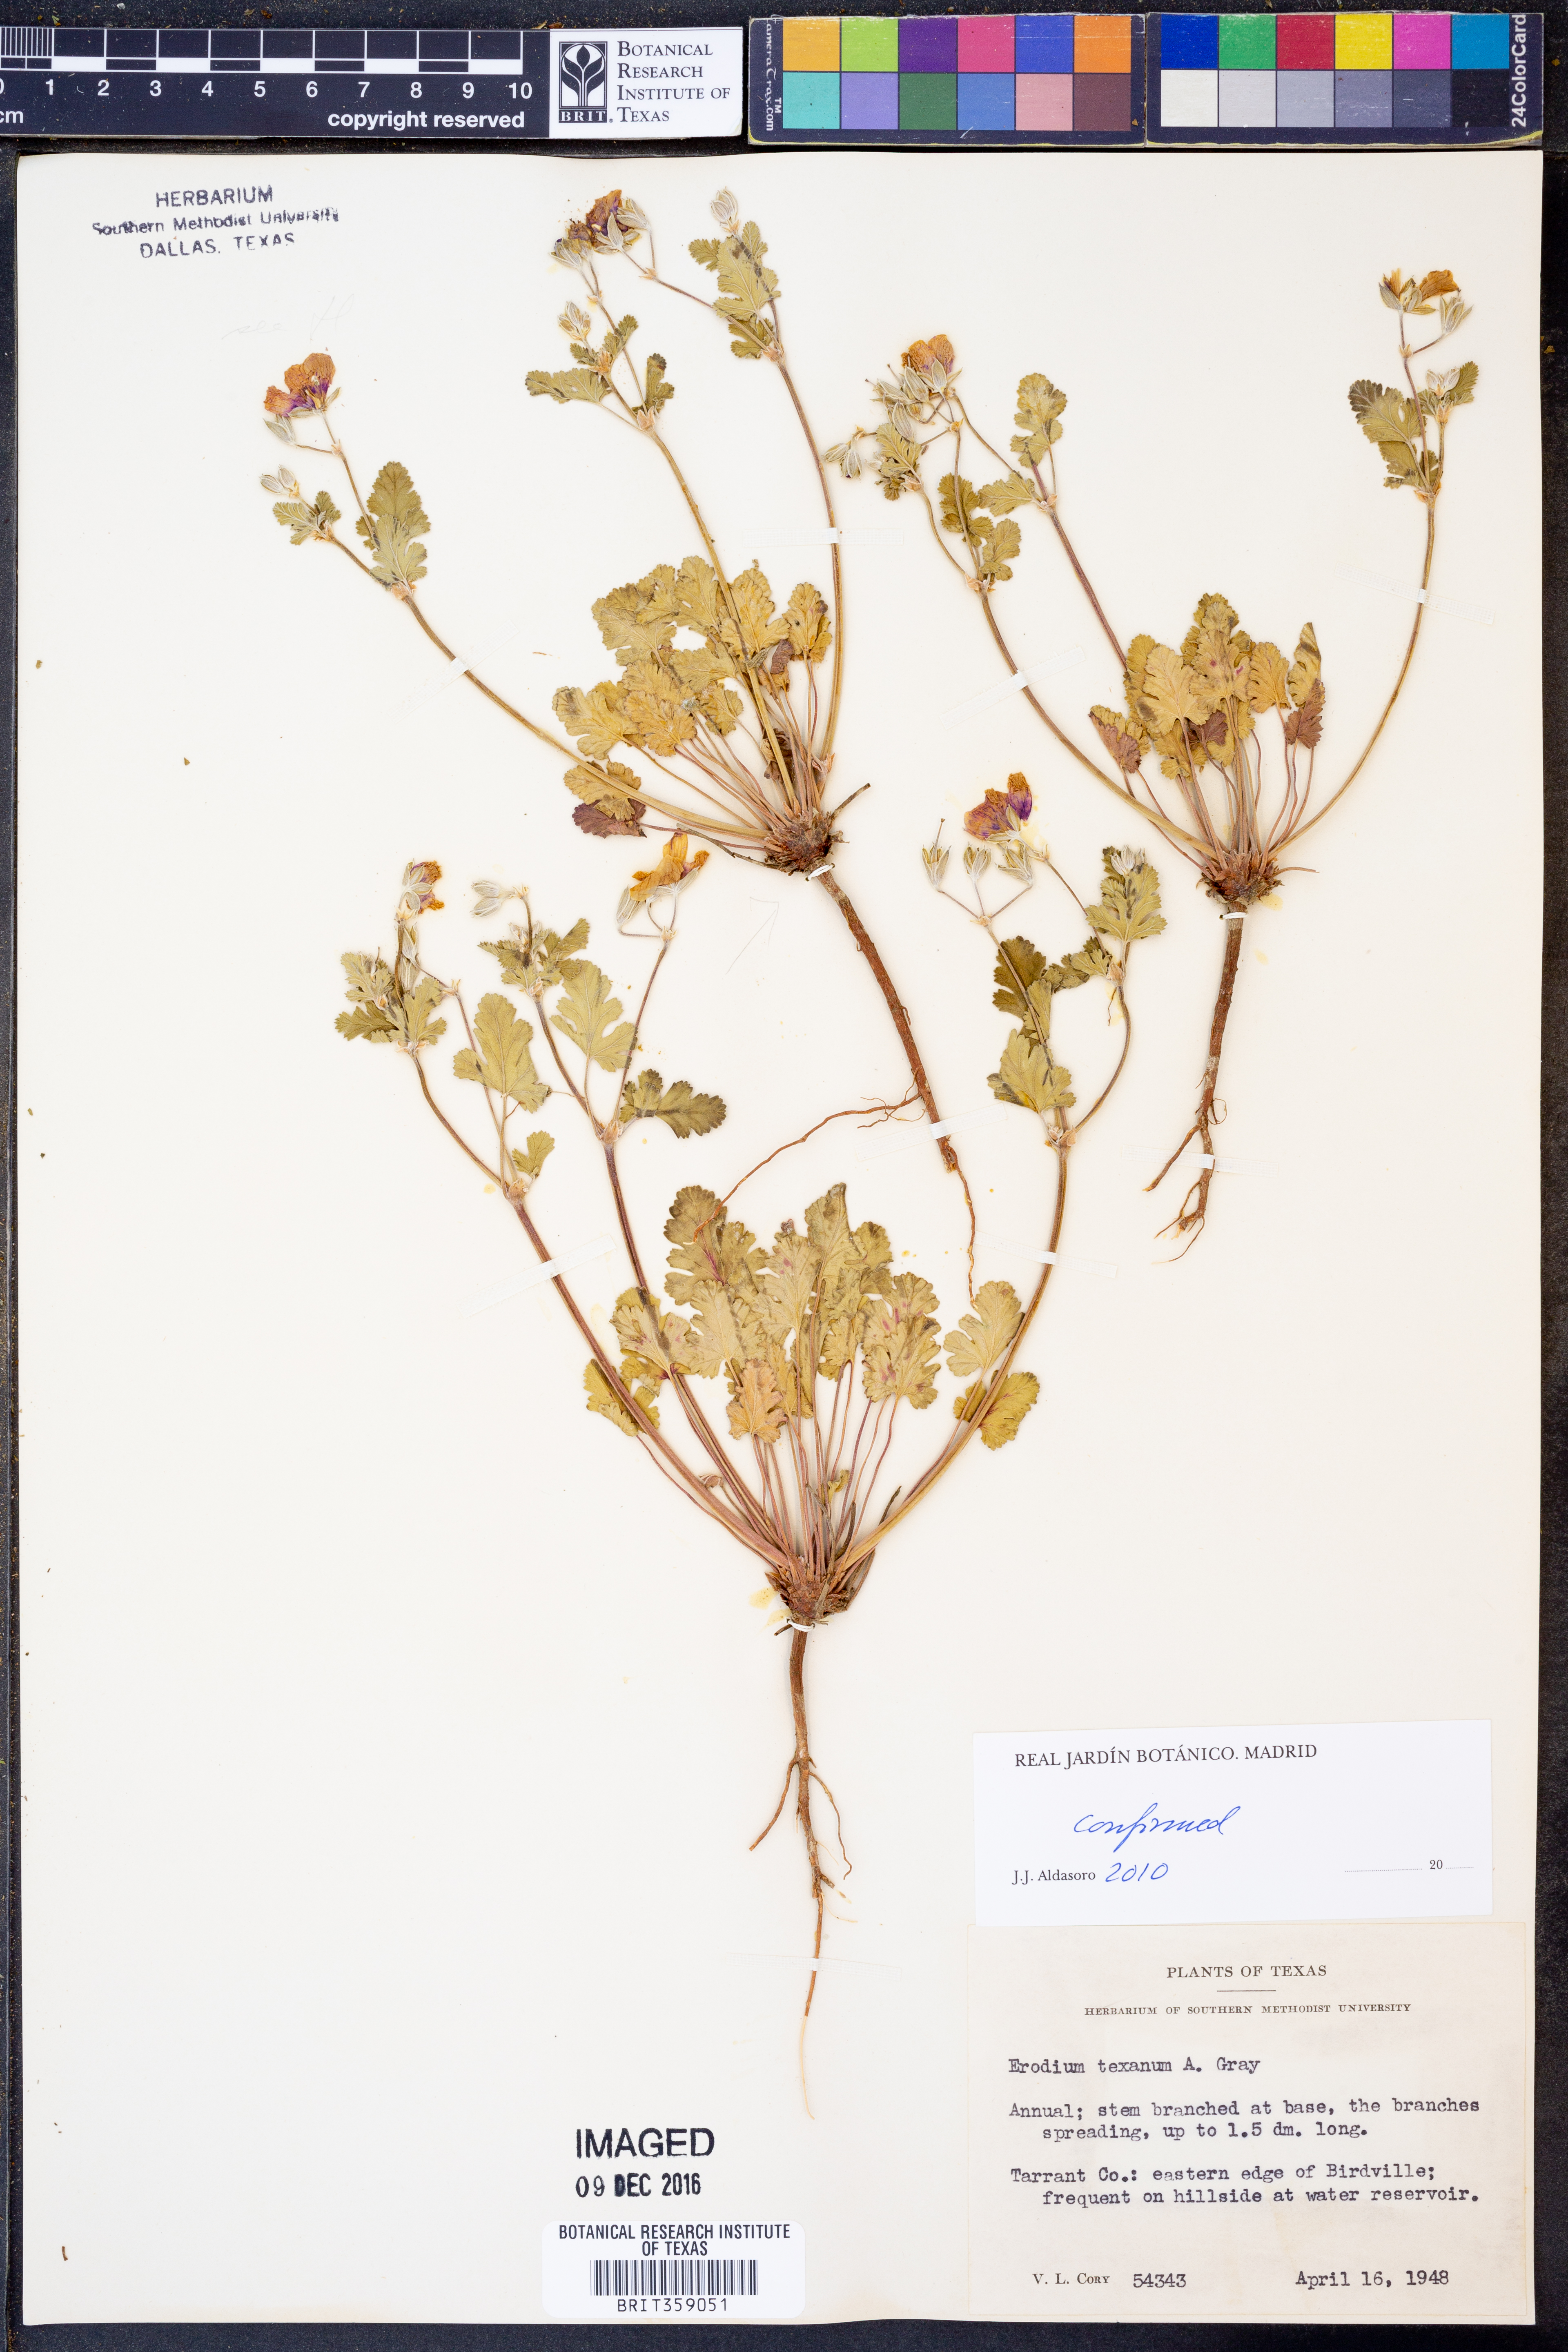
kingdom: Plantae
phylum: Tracheophyta
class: Magnoliopsida
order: Geraniales
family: Geraniaceae
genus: Erodium
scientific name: Erodium texanum
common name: Texas stork's-bill
